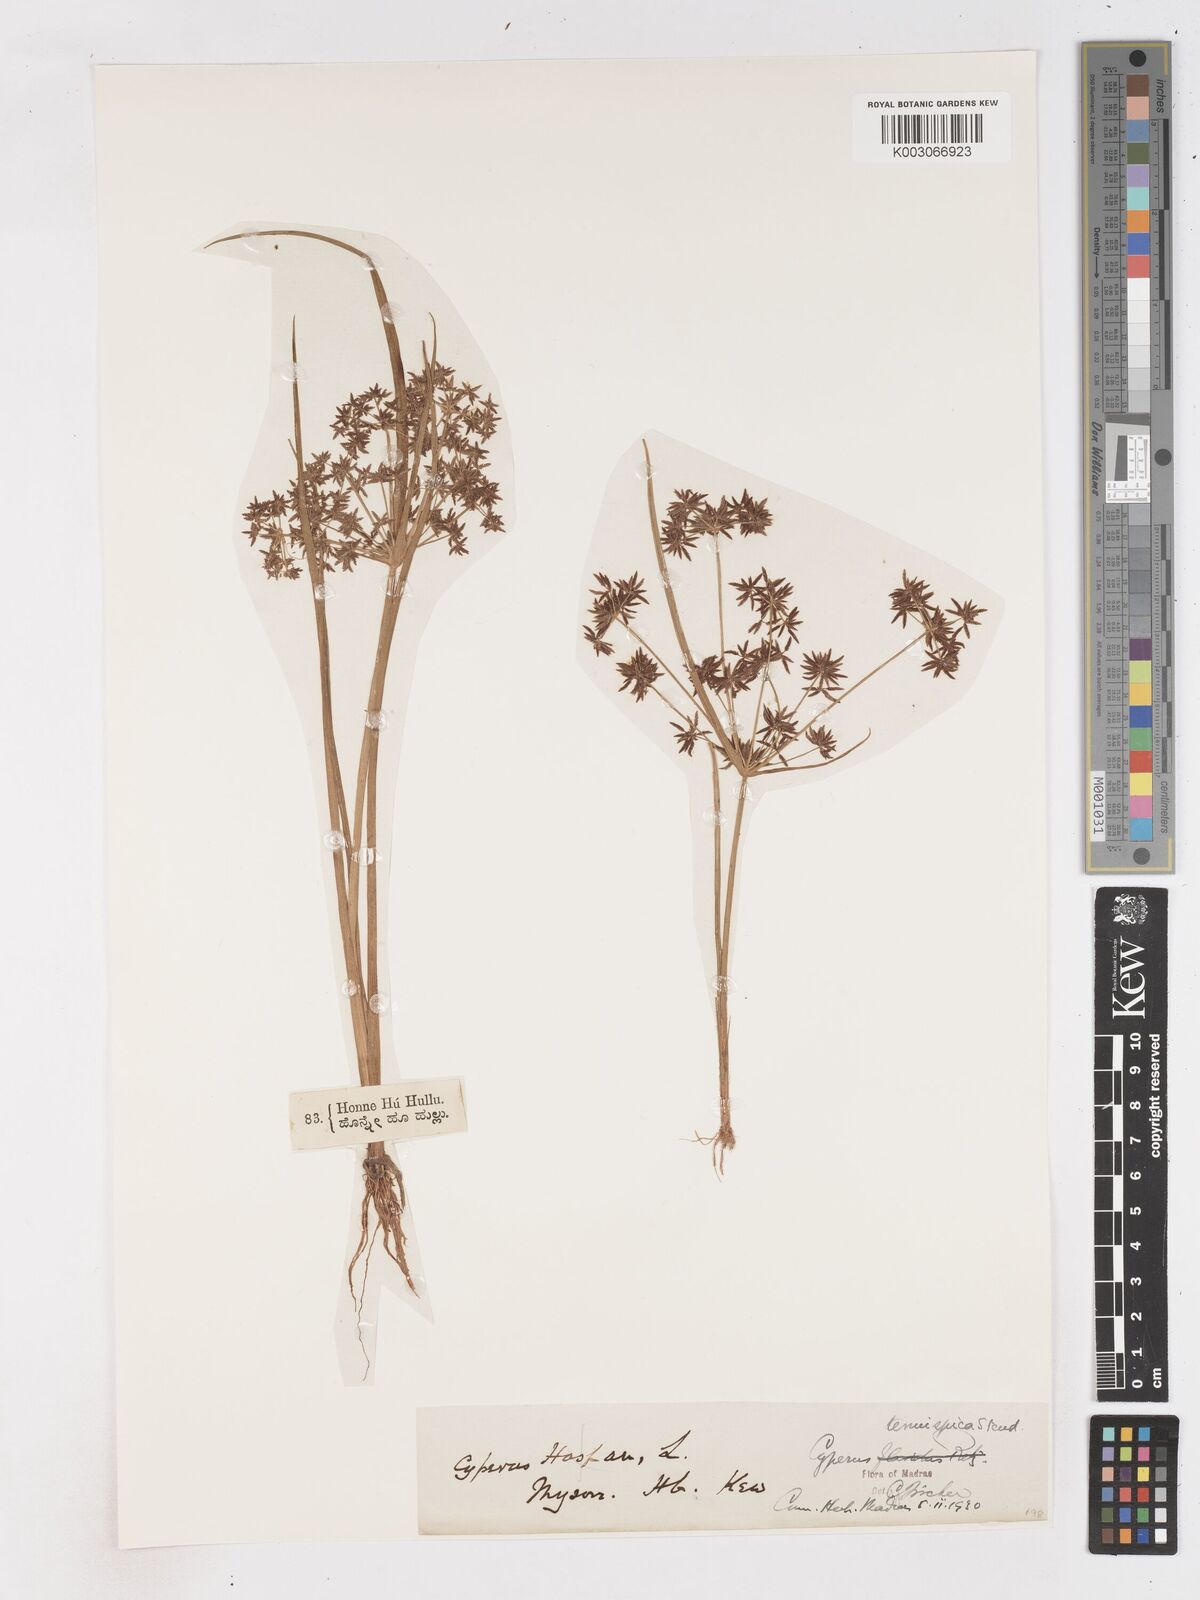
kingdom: Plantae
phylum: Tracheophyta
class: Liliopsida
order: Poales
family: Cyperaceae
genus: Cyperus
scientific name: Cyperus tenuispica
